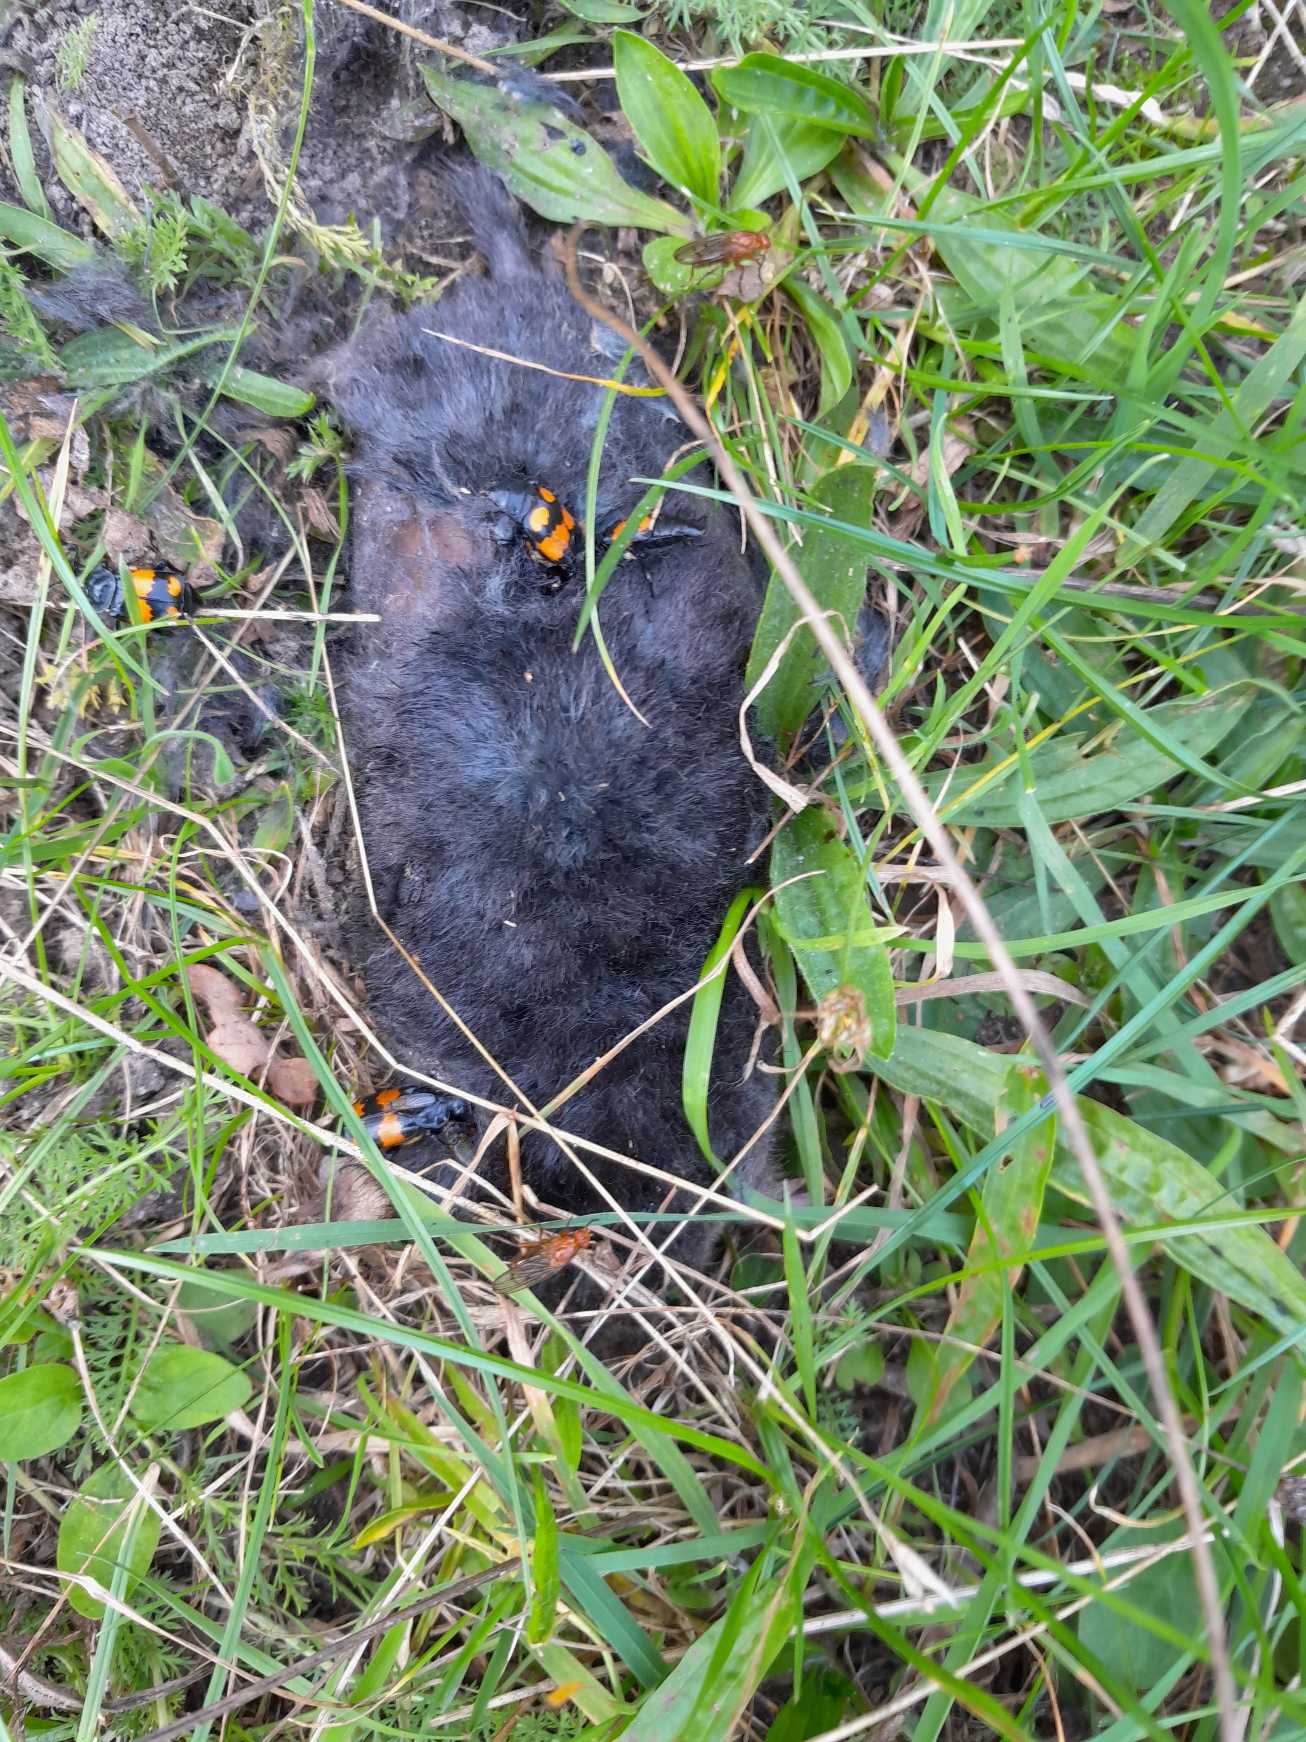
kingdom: Animalia
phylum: Chordata
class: Mammalia
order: Soricomorpha
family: Talpidae
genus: Talpa
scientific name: Talpa europaea
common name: Muldvarp
